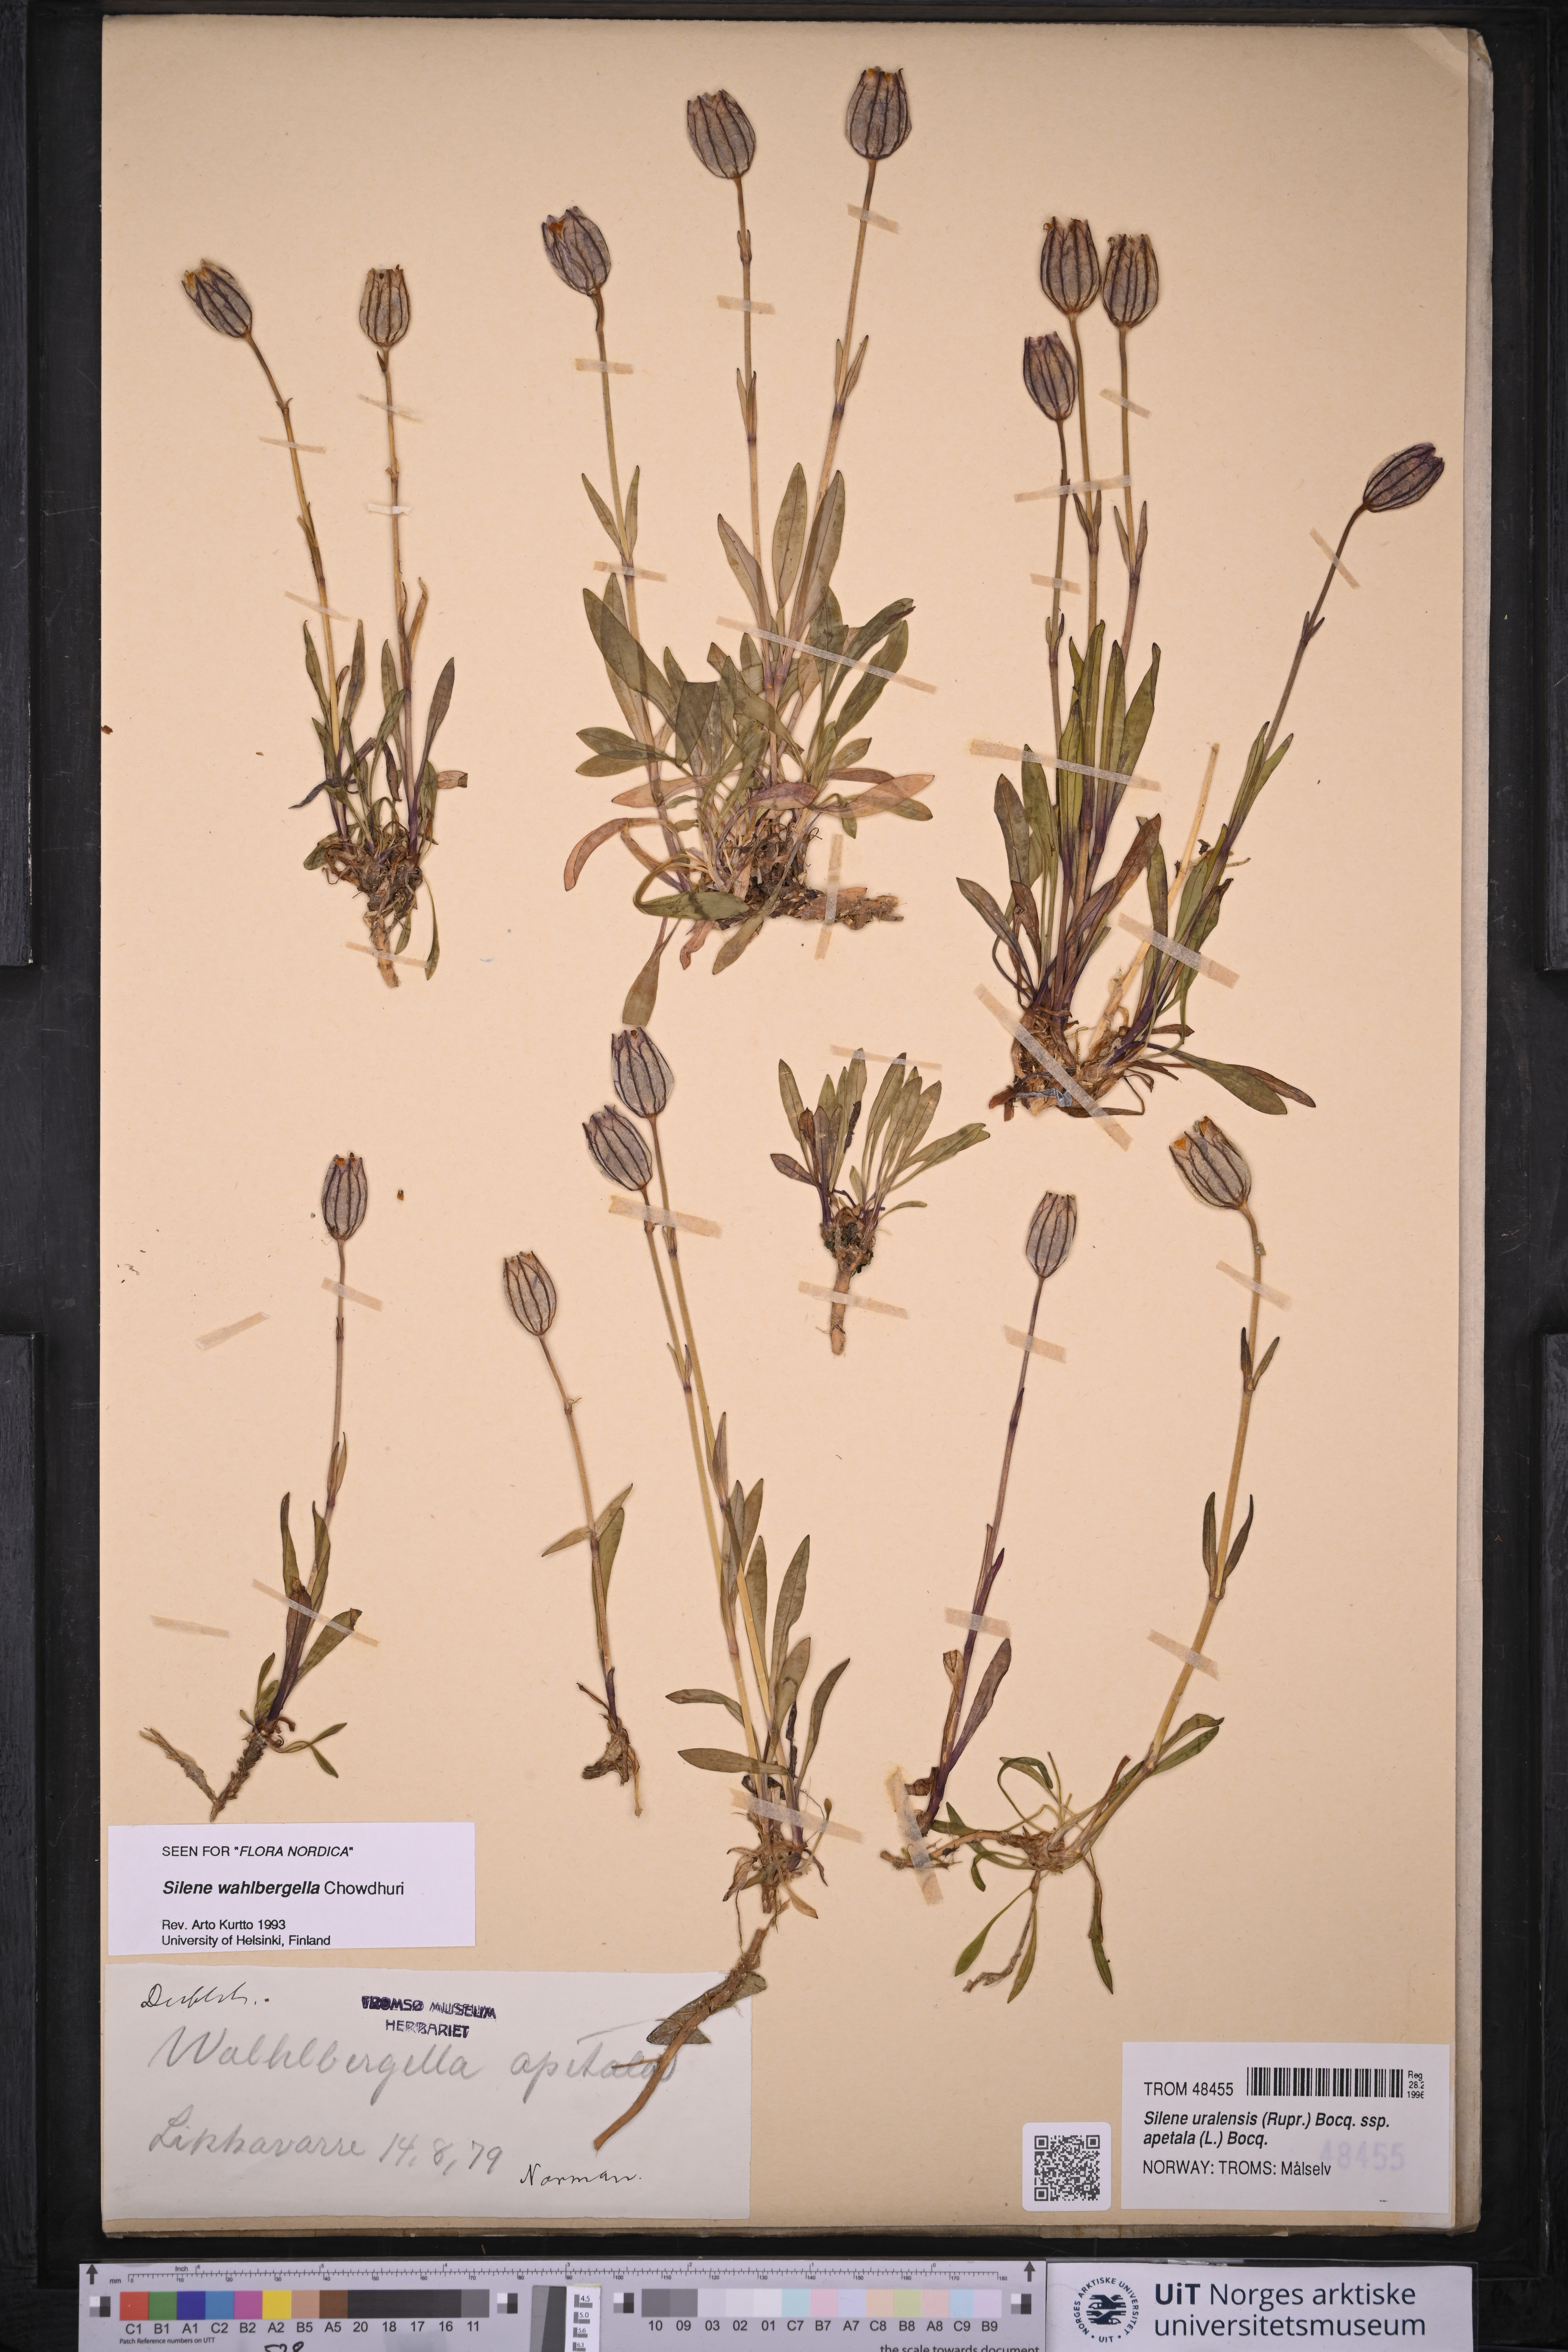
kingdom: Plantae
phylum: Tracheophyta
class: Magnoliopsida
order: Caryophyllales
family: Caryophyllaceae
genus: Silene
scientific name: Silene wahlbergella
